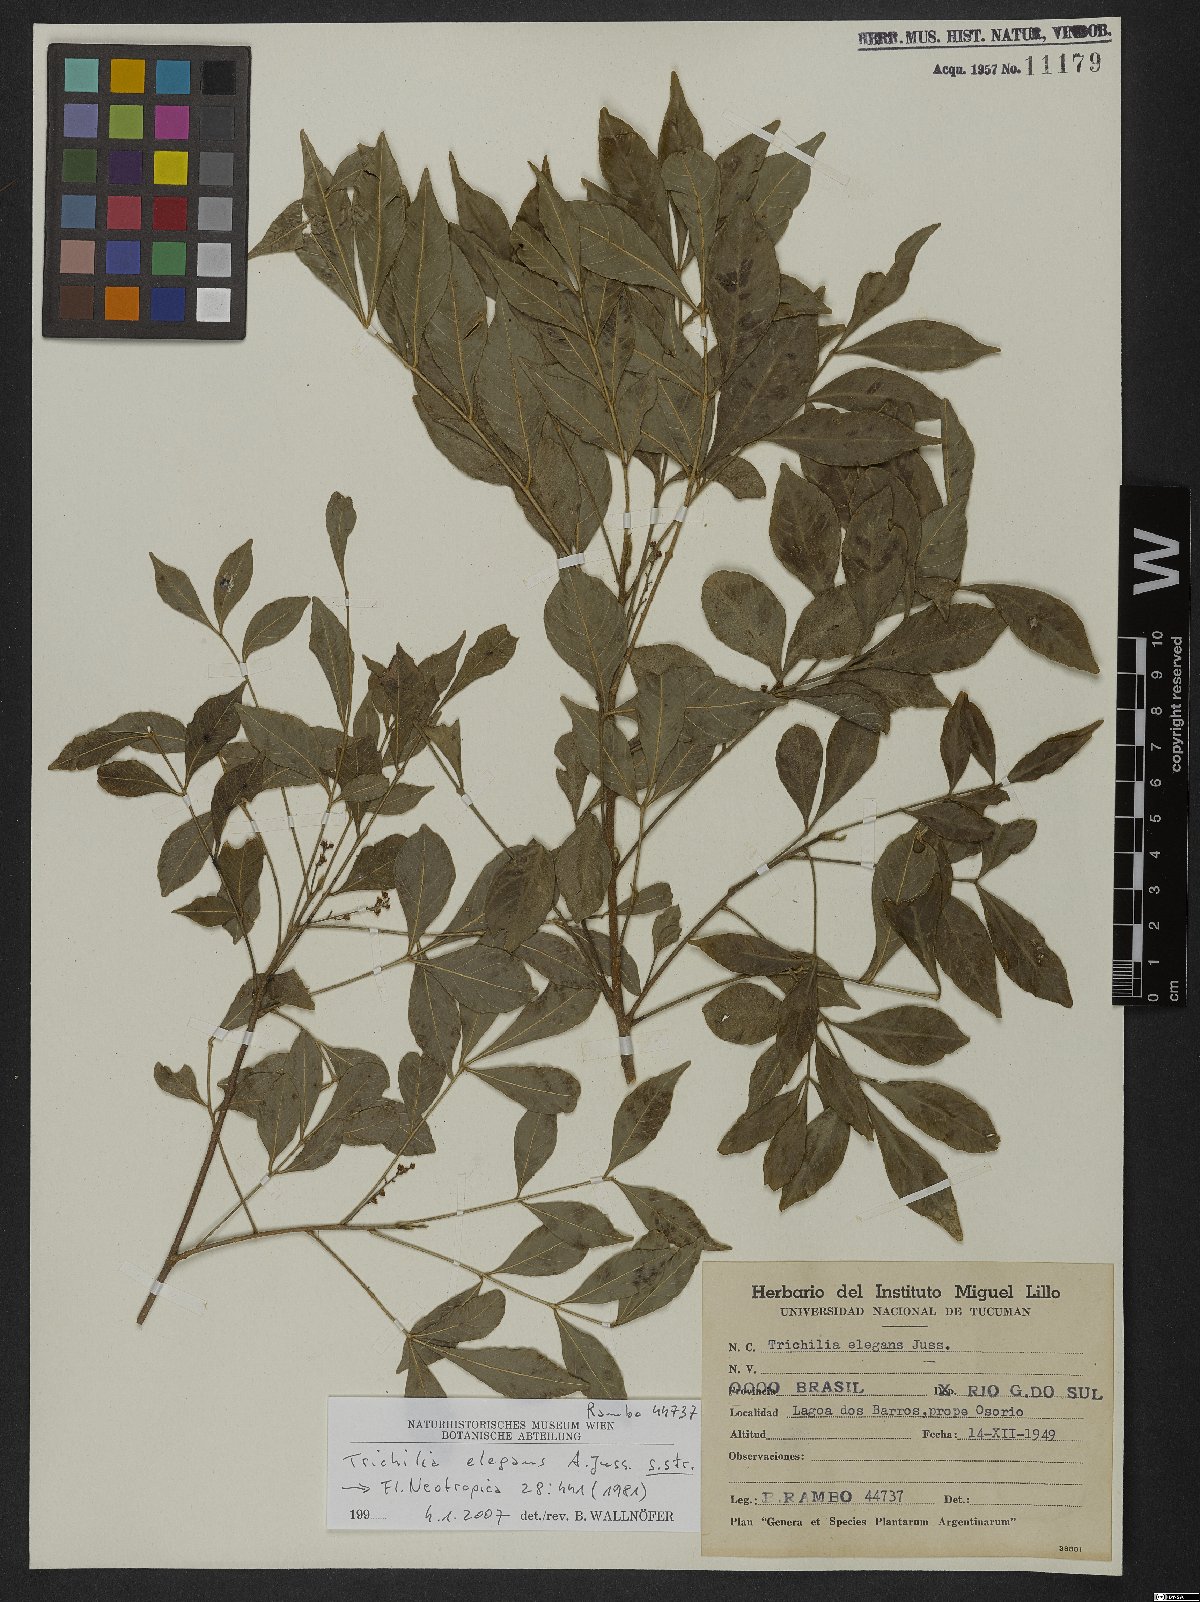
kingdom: Plantae
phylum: Tracheophyta
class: Magnoliopsida
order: Sapindales
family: Meliaceae
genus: Trichilia
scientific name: Trichilia elegans
